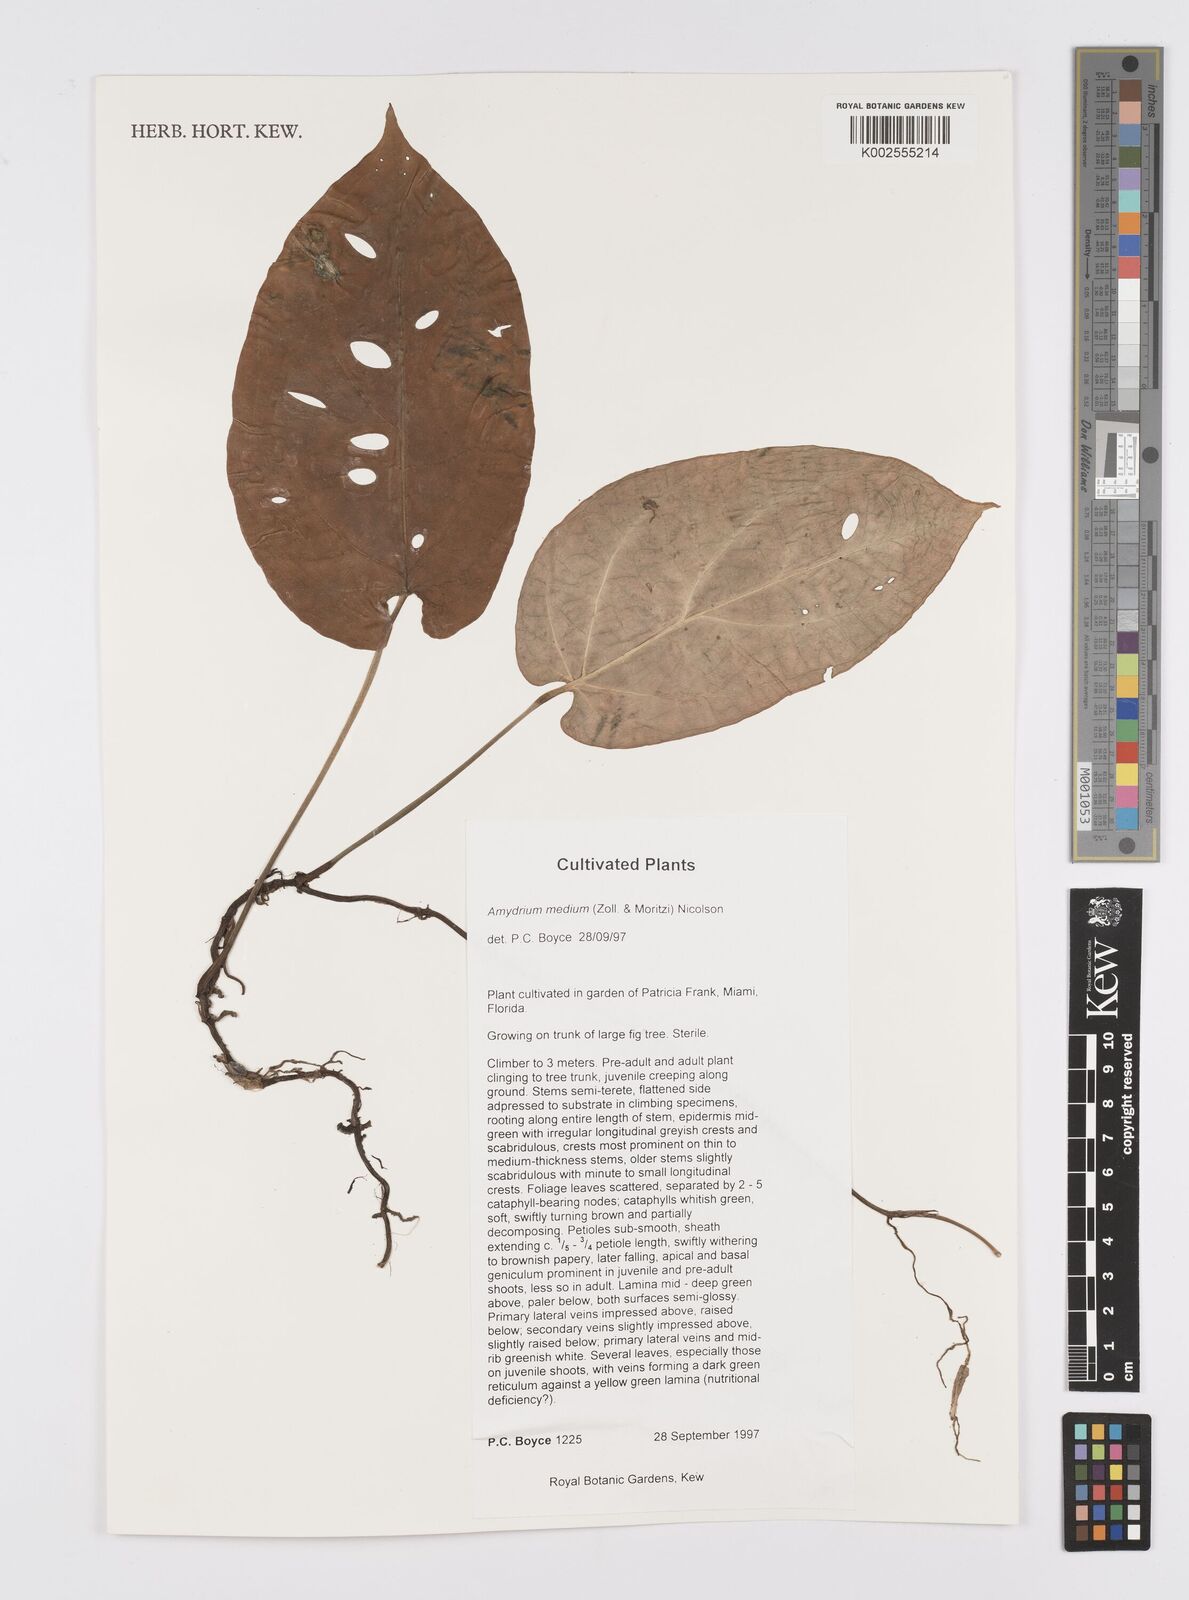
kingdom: Plantae
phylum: Tracheophyta
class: Liliopsida
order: Alismatales
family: Araceae
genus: Amydrium
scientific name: Amydrium medium
